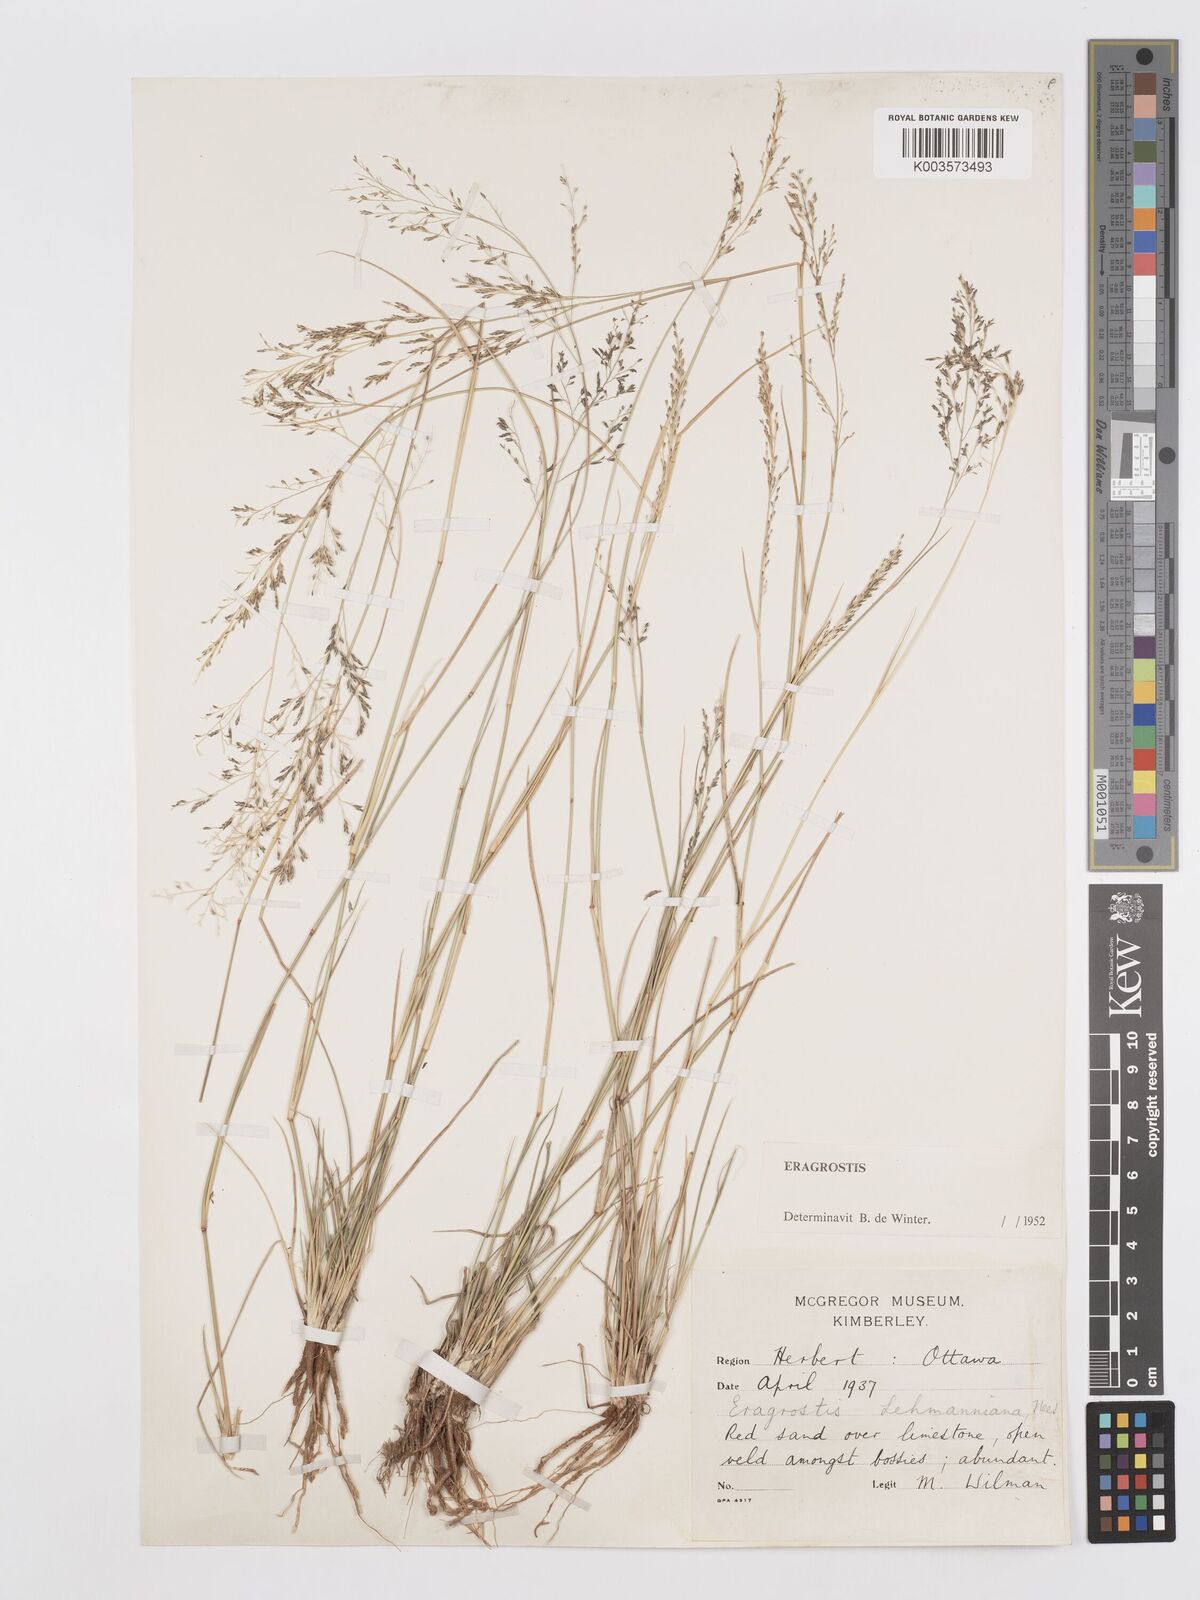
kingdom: Plantae
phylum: Tracheophyta
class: Liliopsida
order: Poales
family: Poaceae
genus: Eragrostis
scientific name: Eragrostis lehmanniana
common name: Lehmann lovegrass
